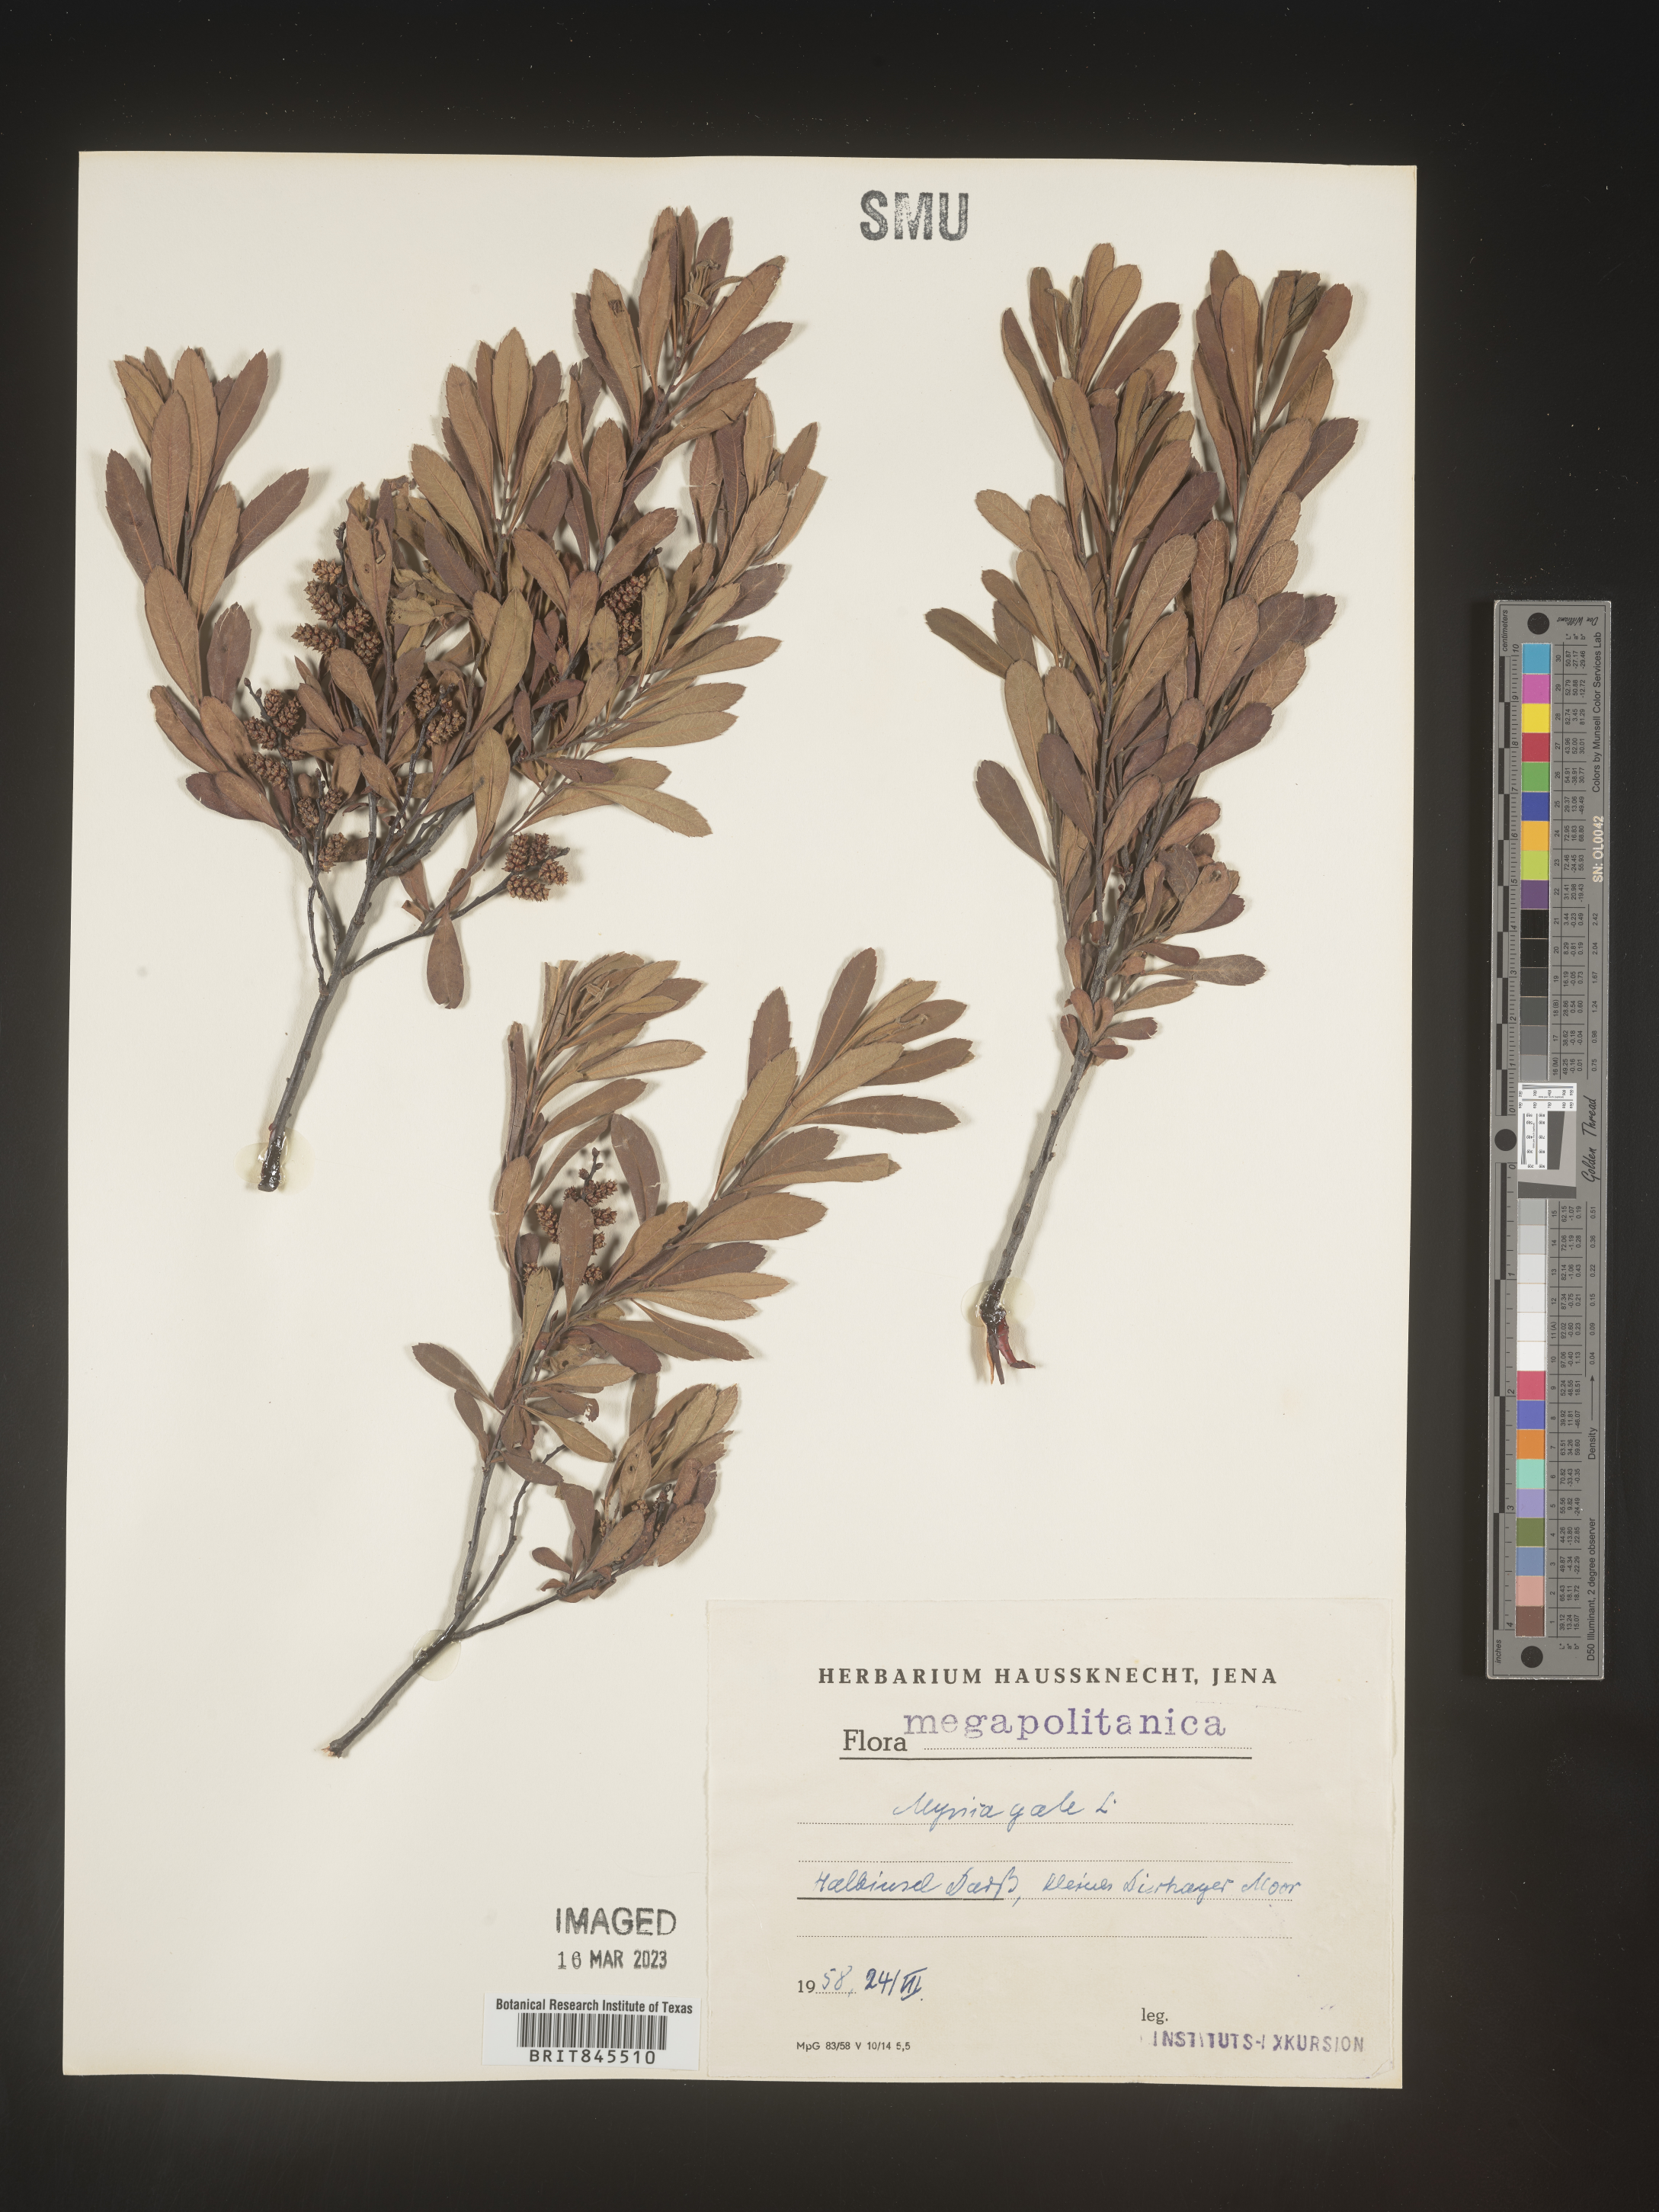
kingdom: Plantae
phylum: Tracheophyta
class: Magnoliopsida
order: Fagales
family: Myricaceae
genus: Myrica
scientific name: Myrica
